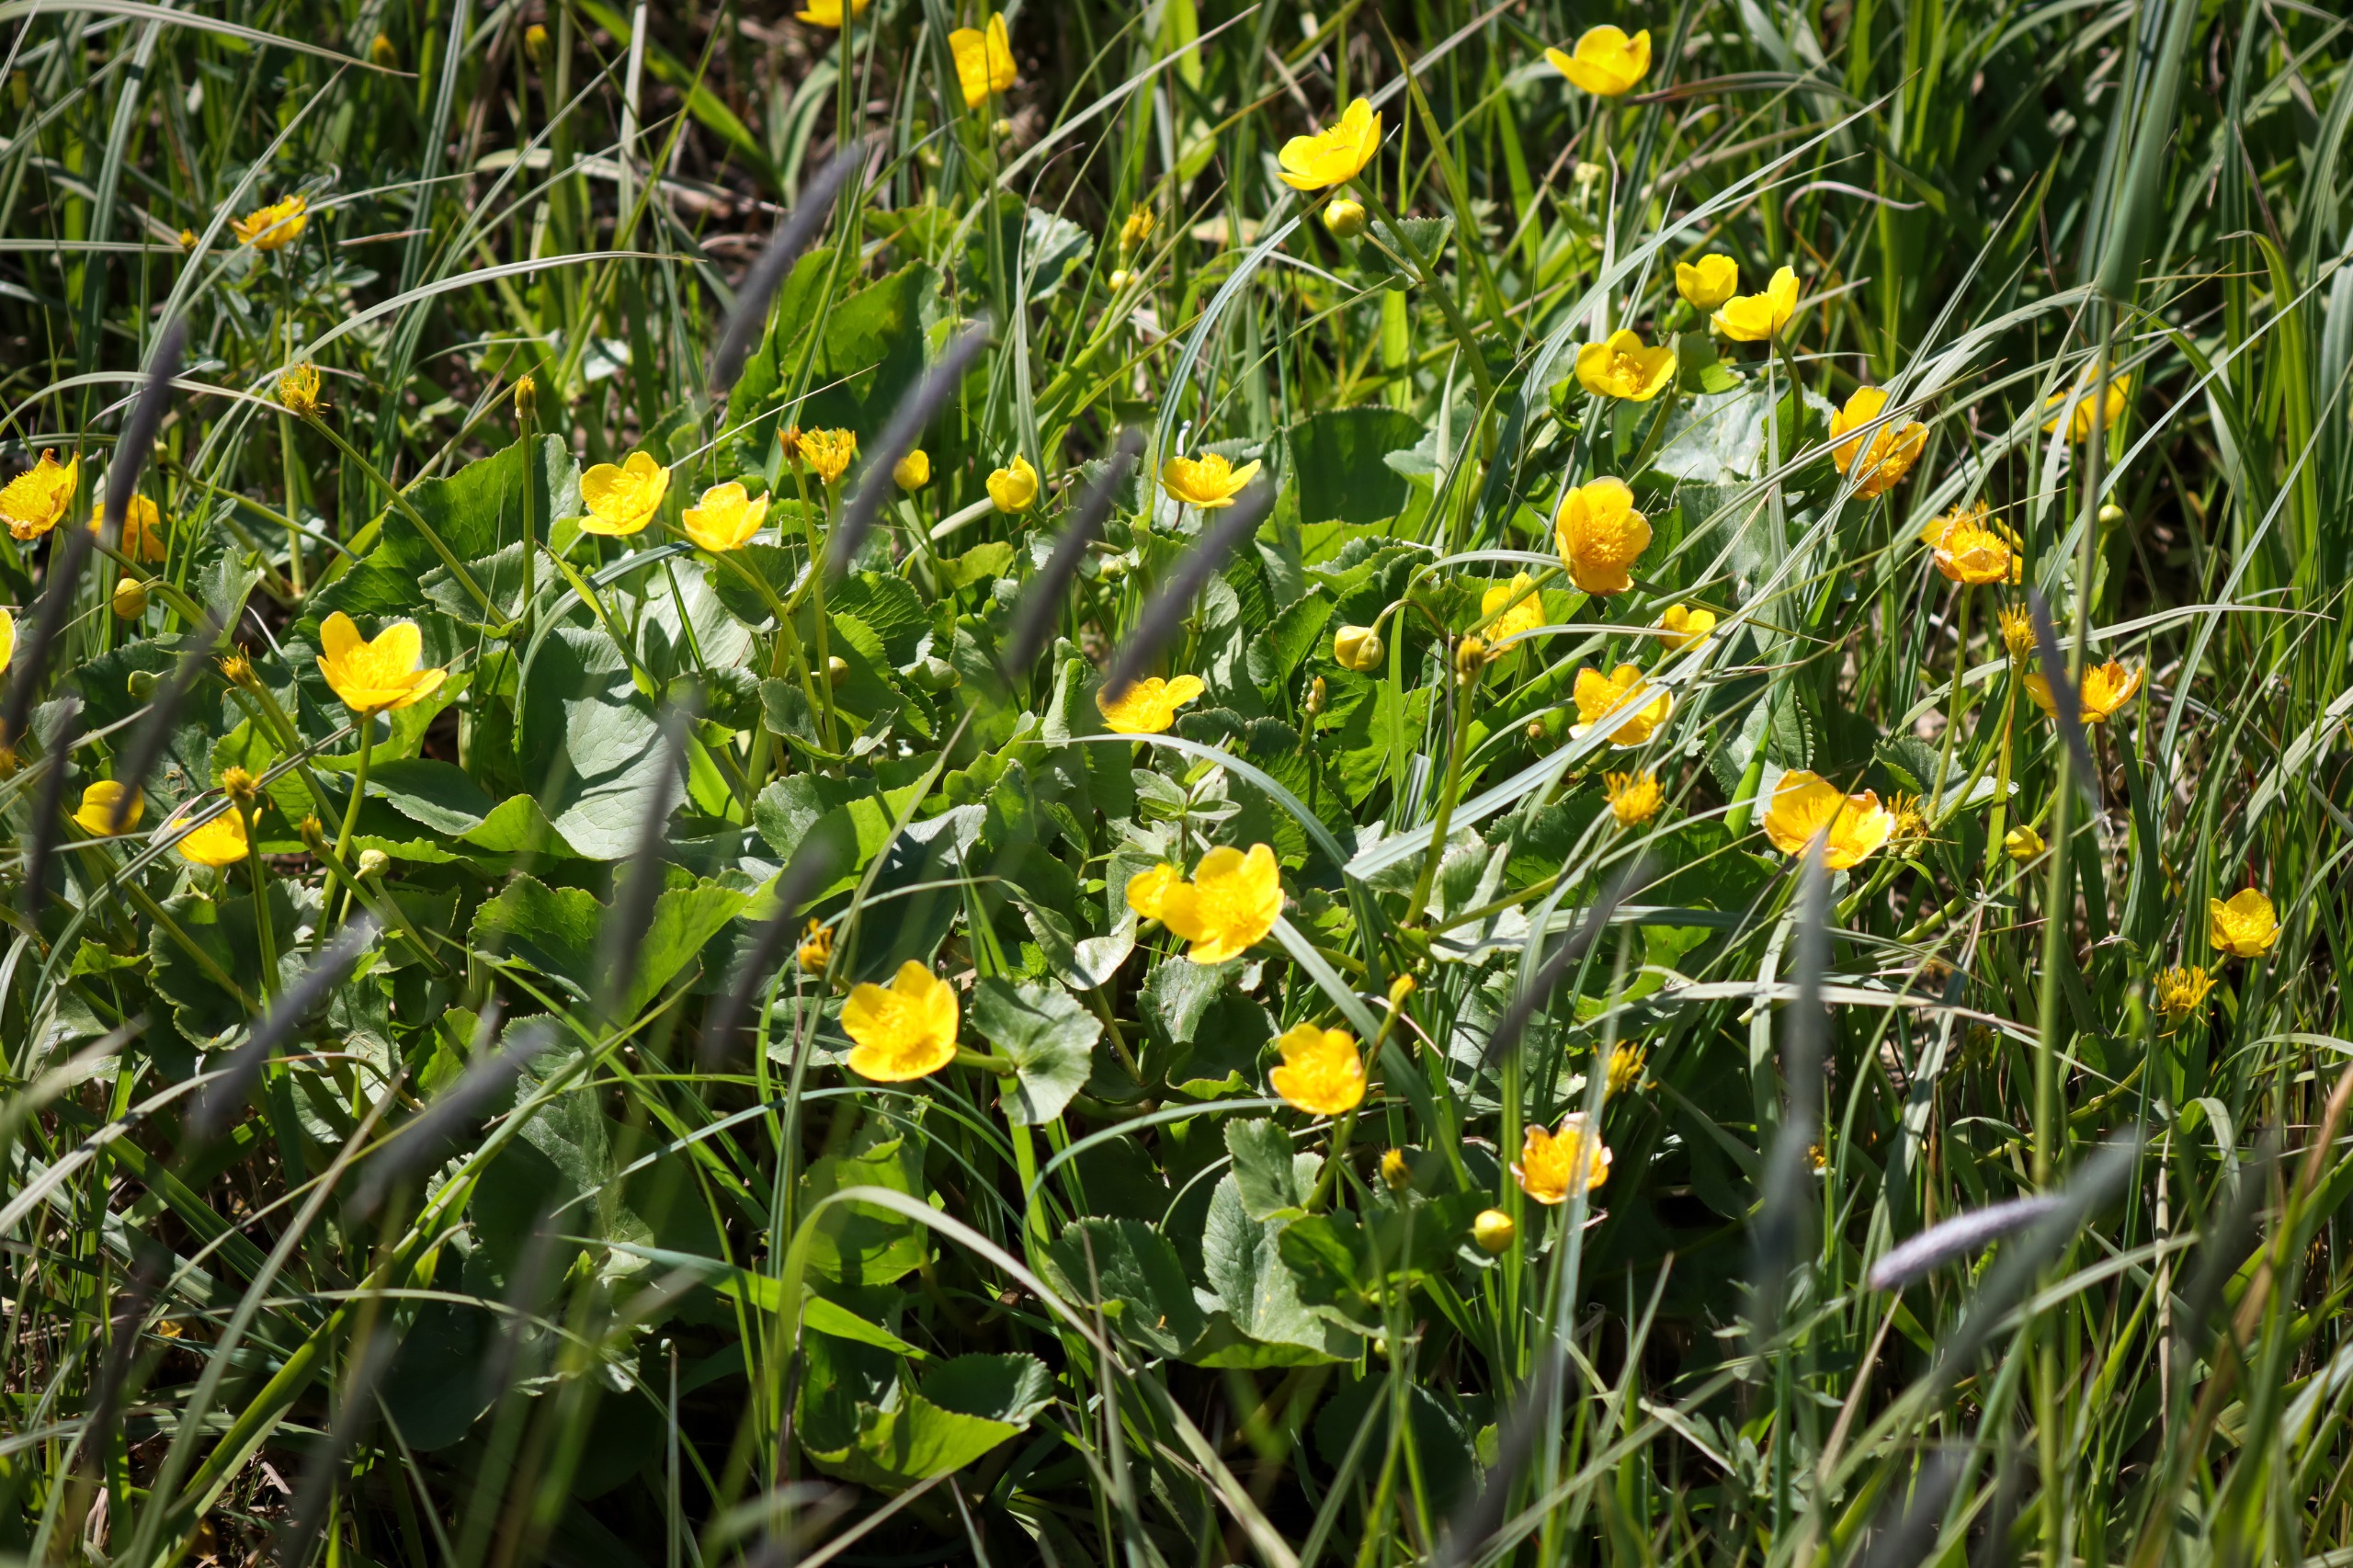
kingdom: Plantae
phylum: Tracheophyta
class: Magnoliopsida
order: Ranunculales
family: Ranunculaceae
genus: Caltha
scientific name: Caltha palustris
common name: Eng-kabbeleje
